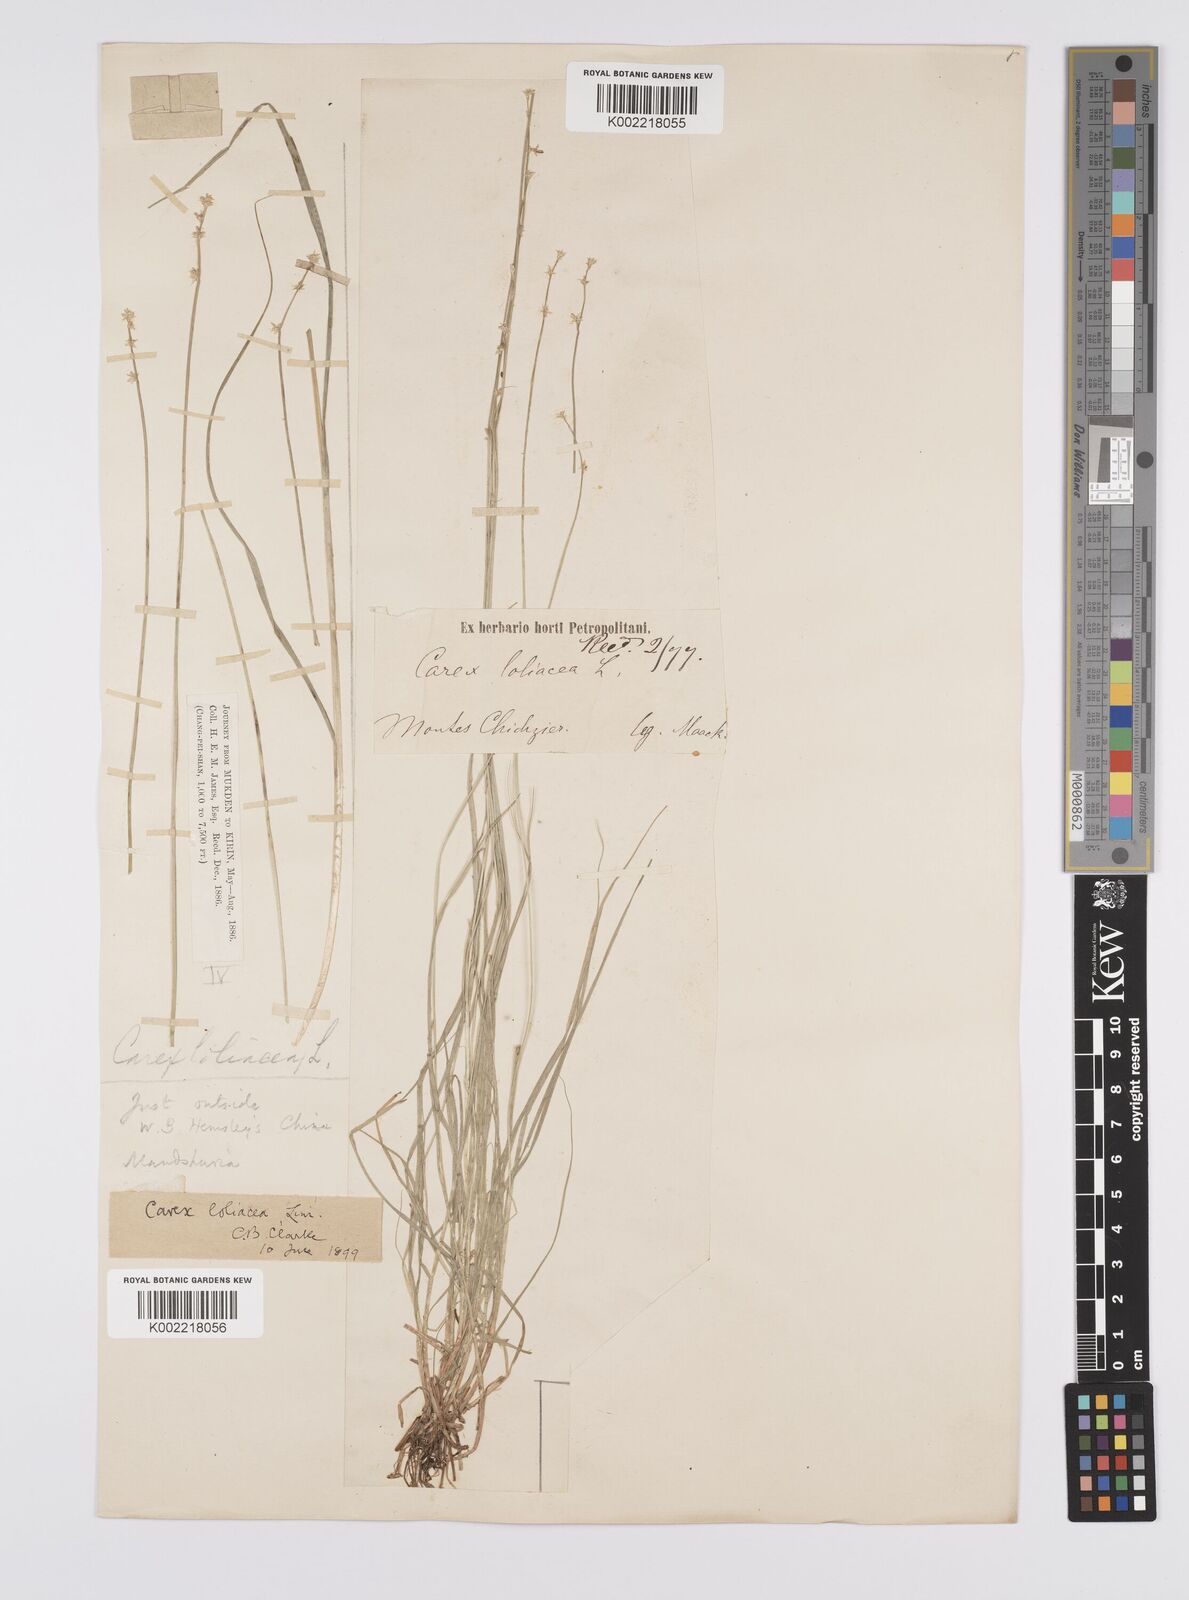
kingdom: Plantae
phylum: Tracheophyta
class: Liliopsida
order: Poales
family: Cyperaceae
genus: Carex
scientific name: Carex loliacea
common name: Ryegrass sedge
